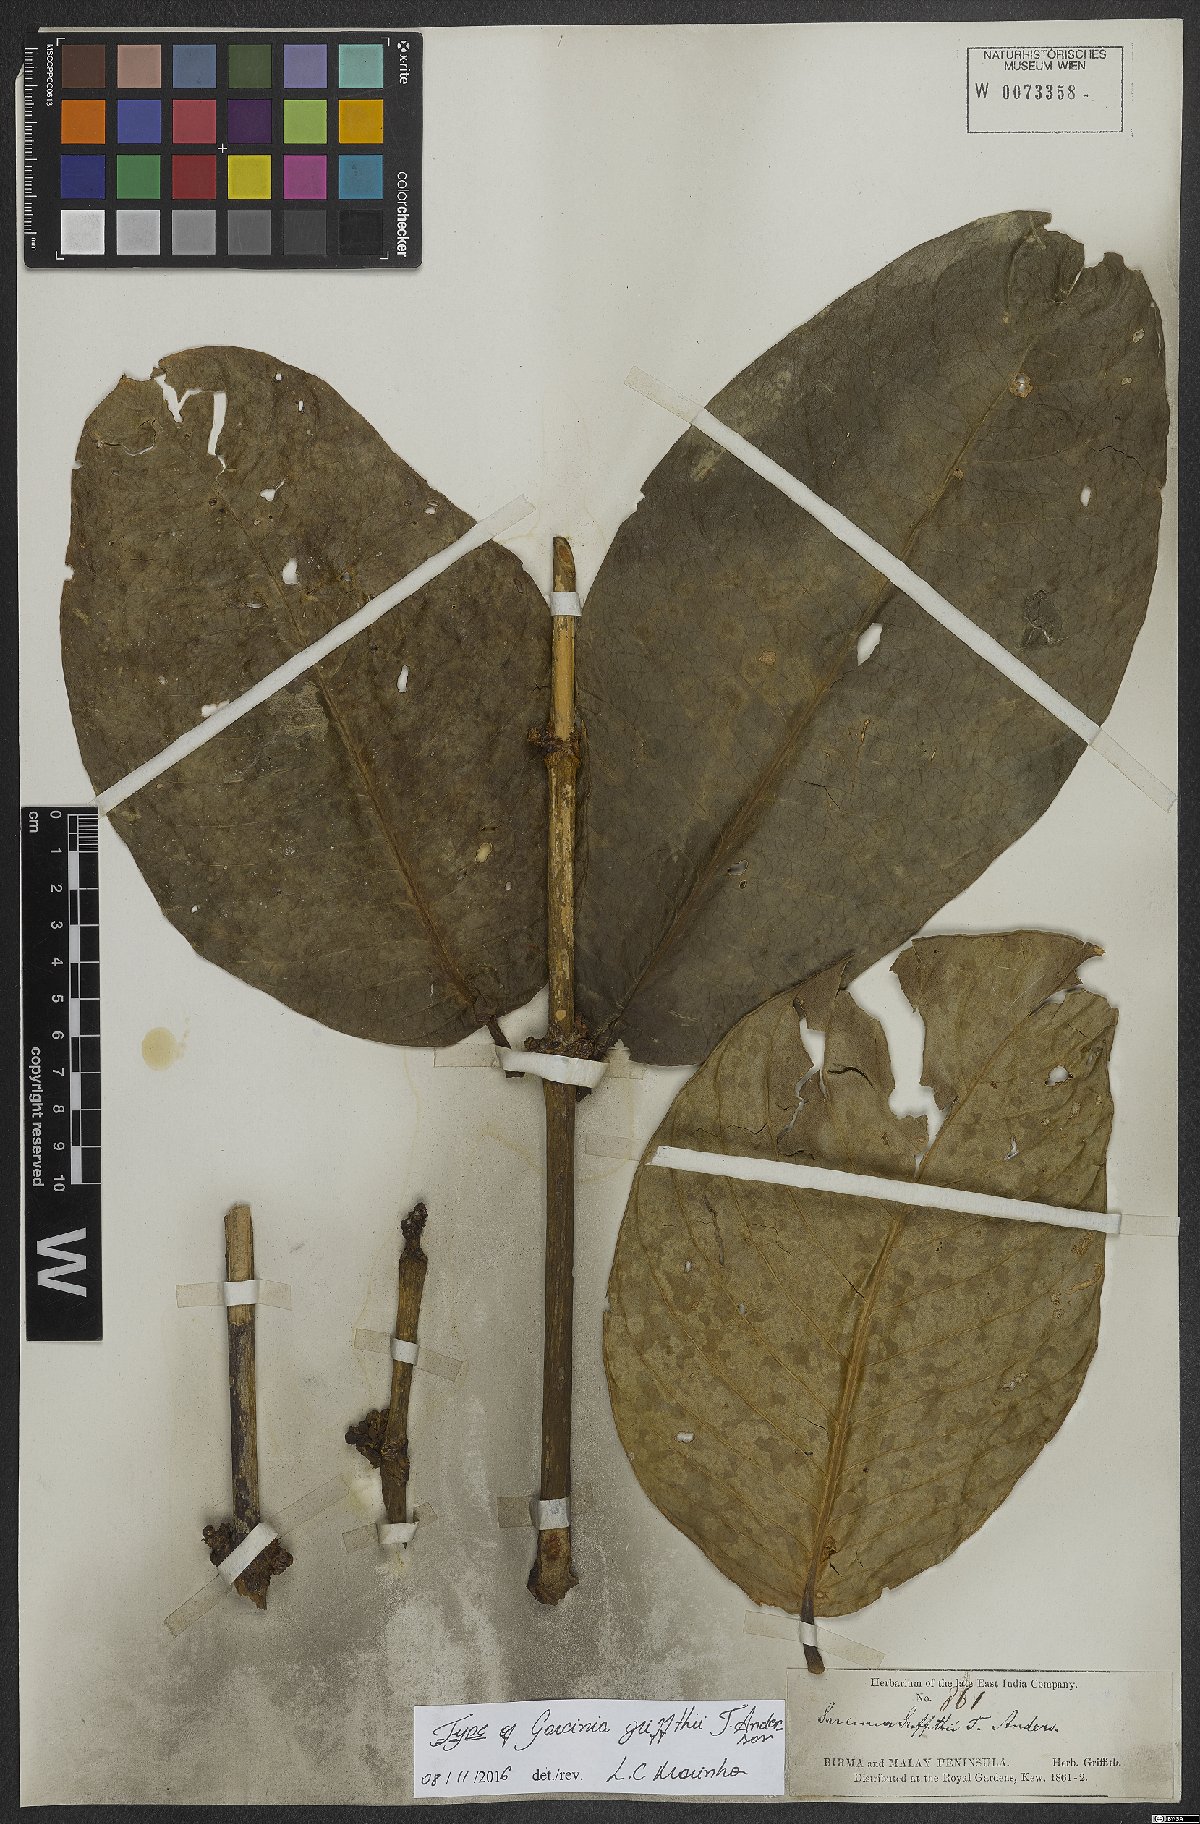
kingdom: Plantae
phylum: Tracheophyta
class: Magnoliopsida
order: Malpighiales
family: Clusiaceae
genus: Garcinia
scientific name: Garcinia griffithii
